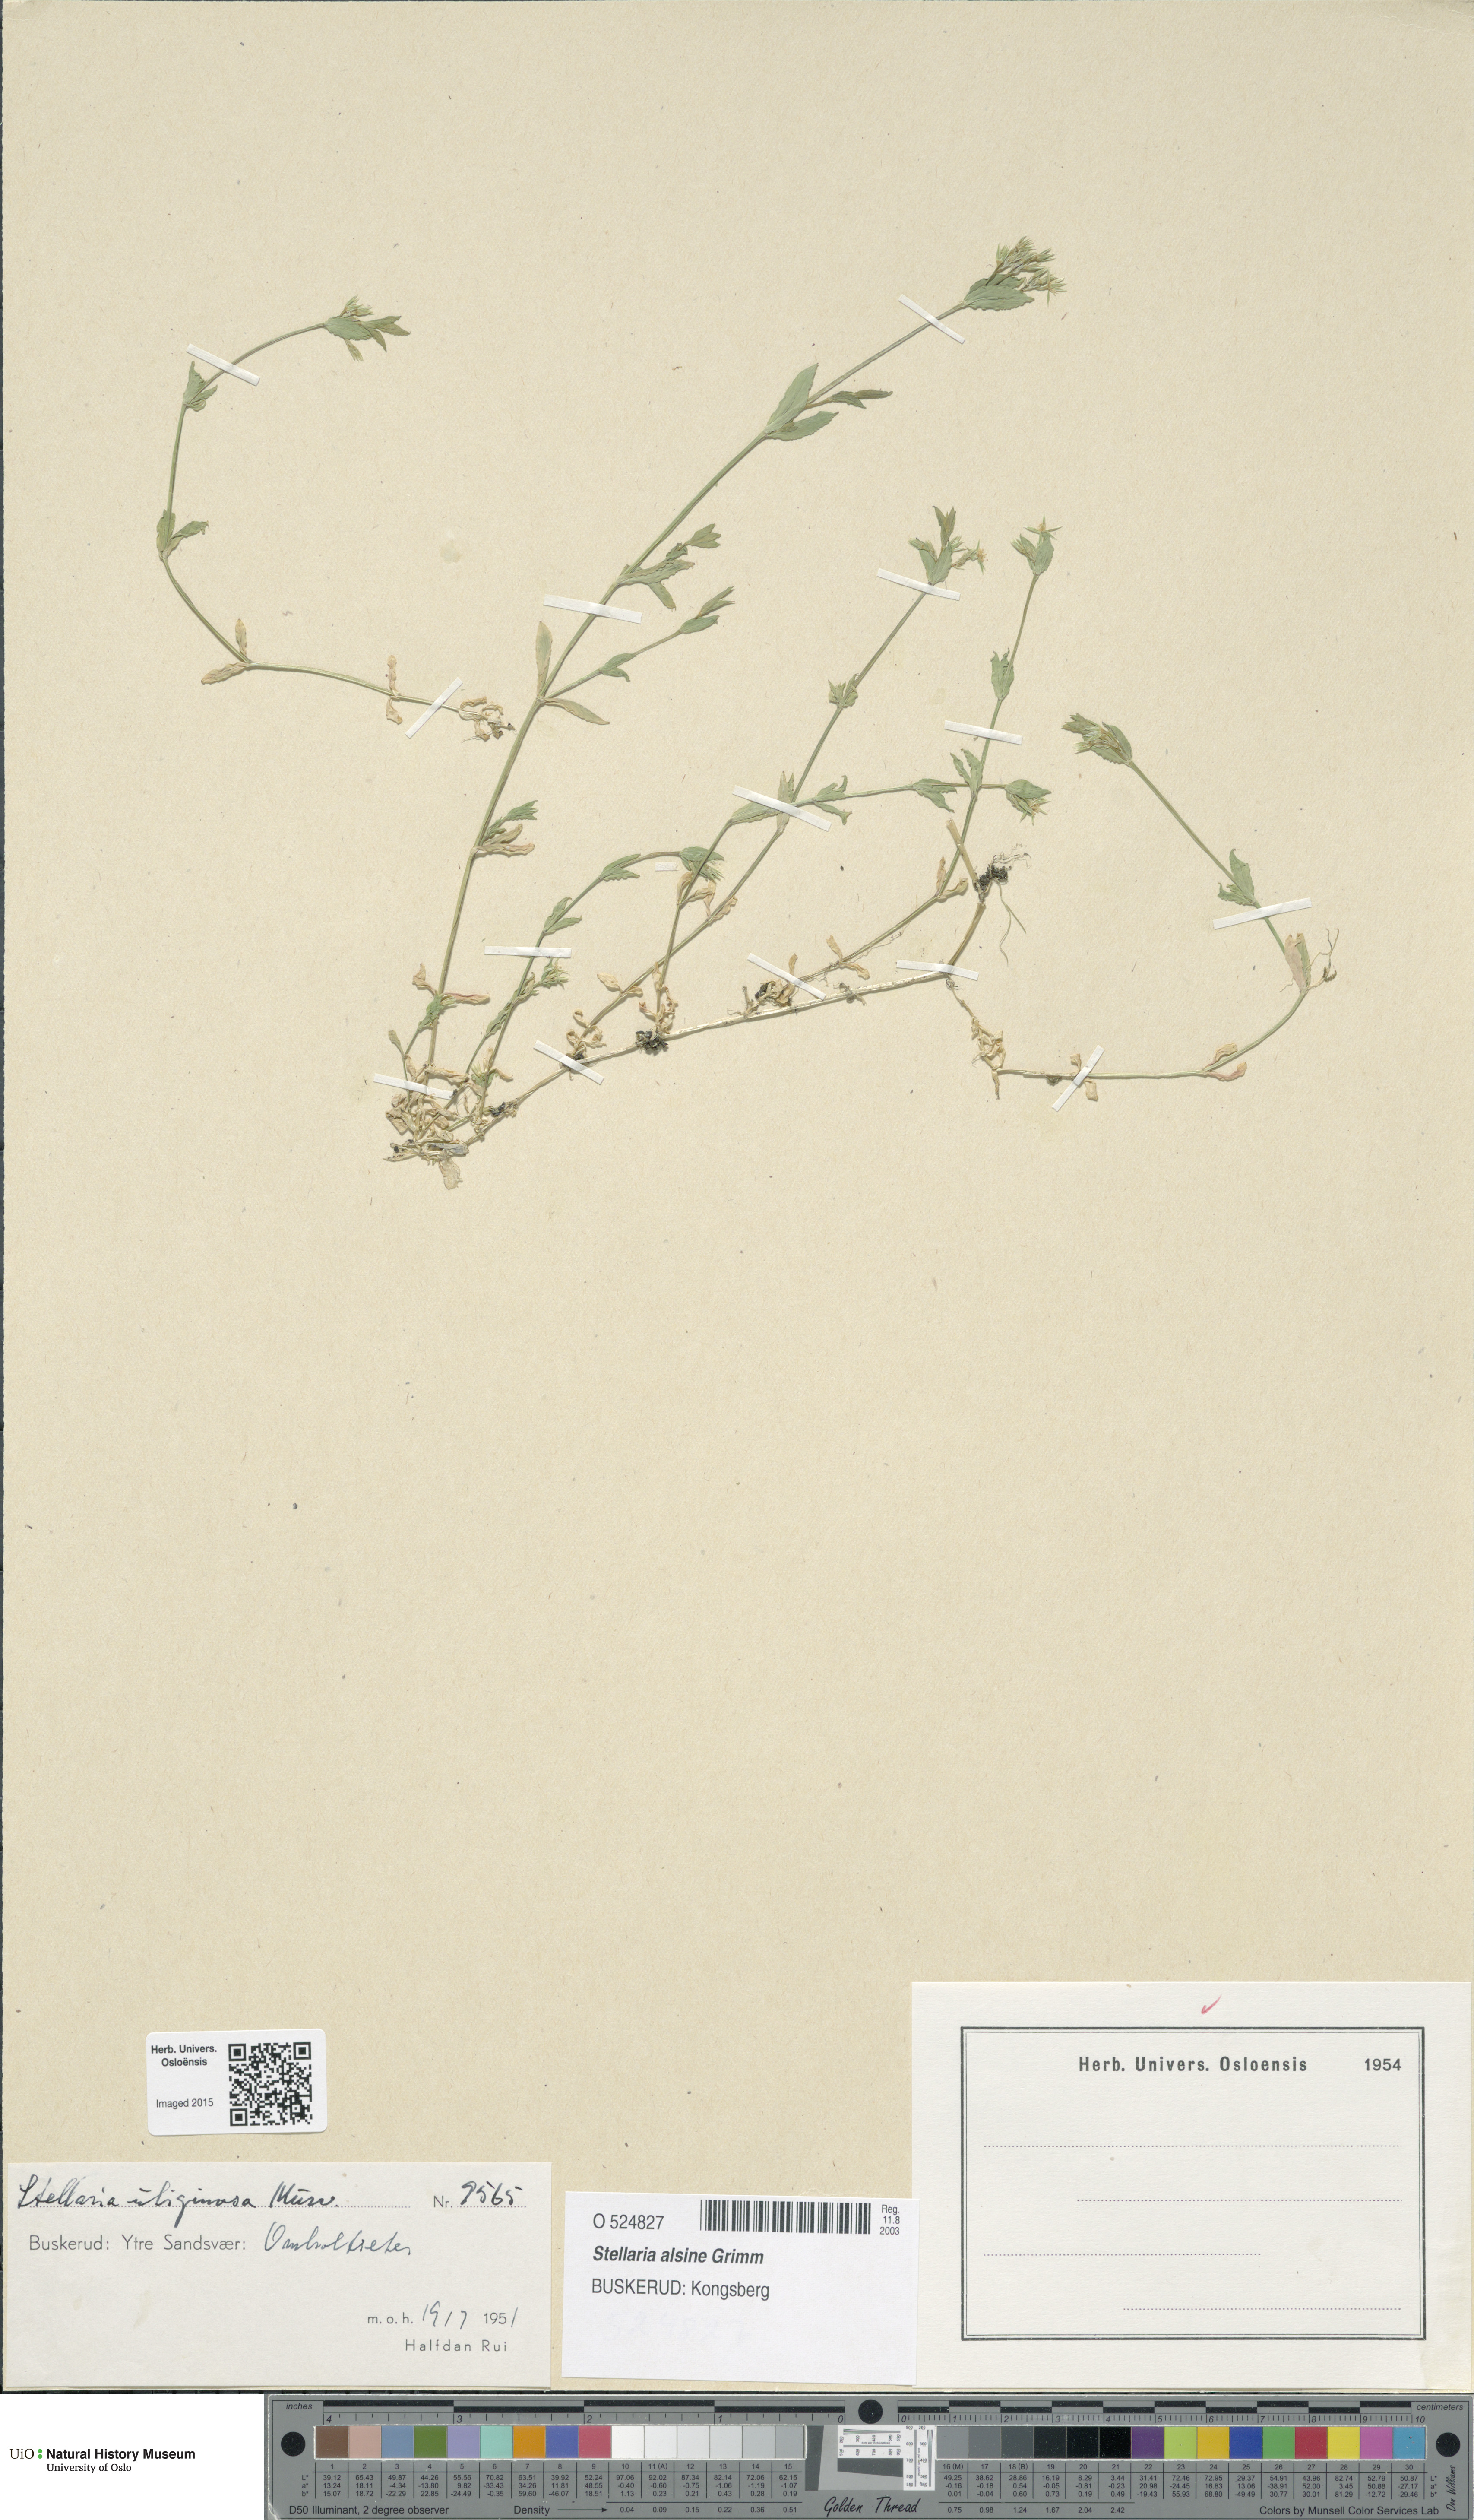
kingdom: Plantae
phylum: Tracheophyta
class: Magnoliopsida
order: Caryophyllales
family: Caryophyllaceae
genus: Stellaria
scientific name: Stellaria alsine
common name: Bog stitchwort
